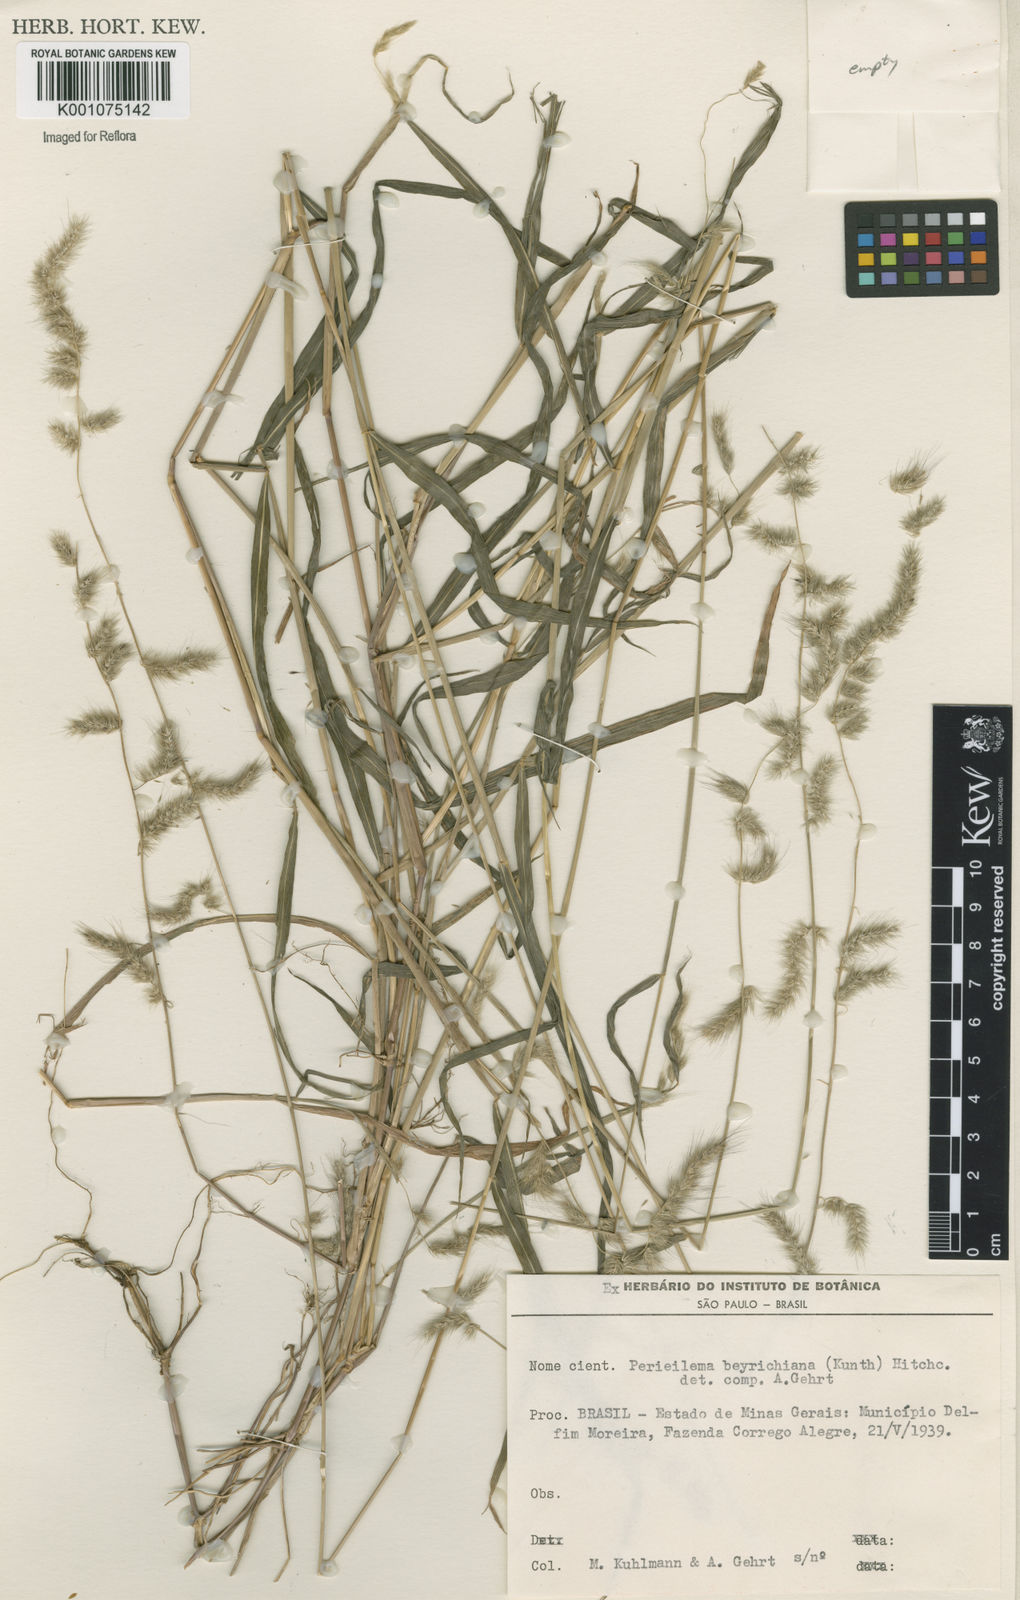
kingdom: Plantae
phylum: Tracheophyta
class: Liliopsida
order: Poales
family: Poaceae
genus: Muhlenbergia
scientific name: Muhlenbergia beyrichiana
